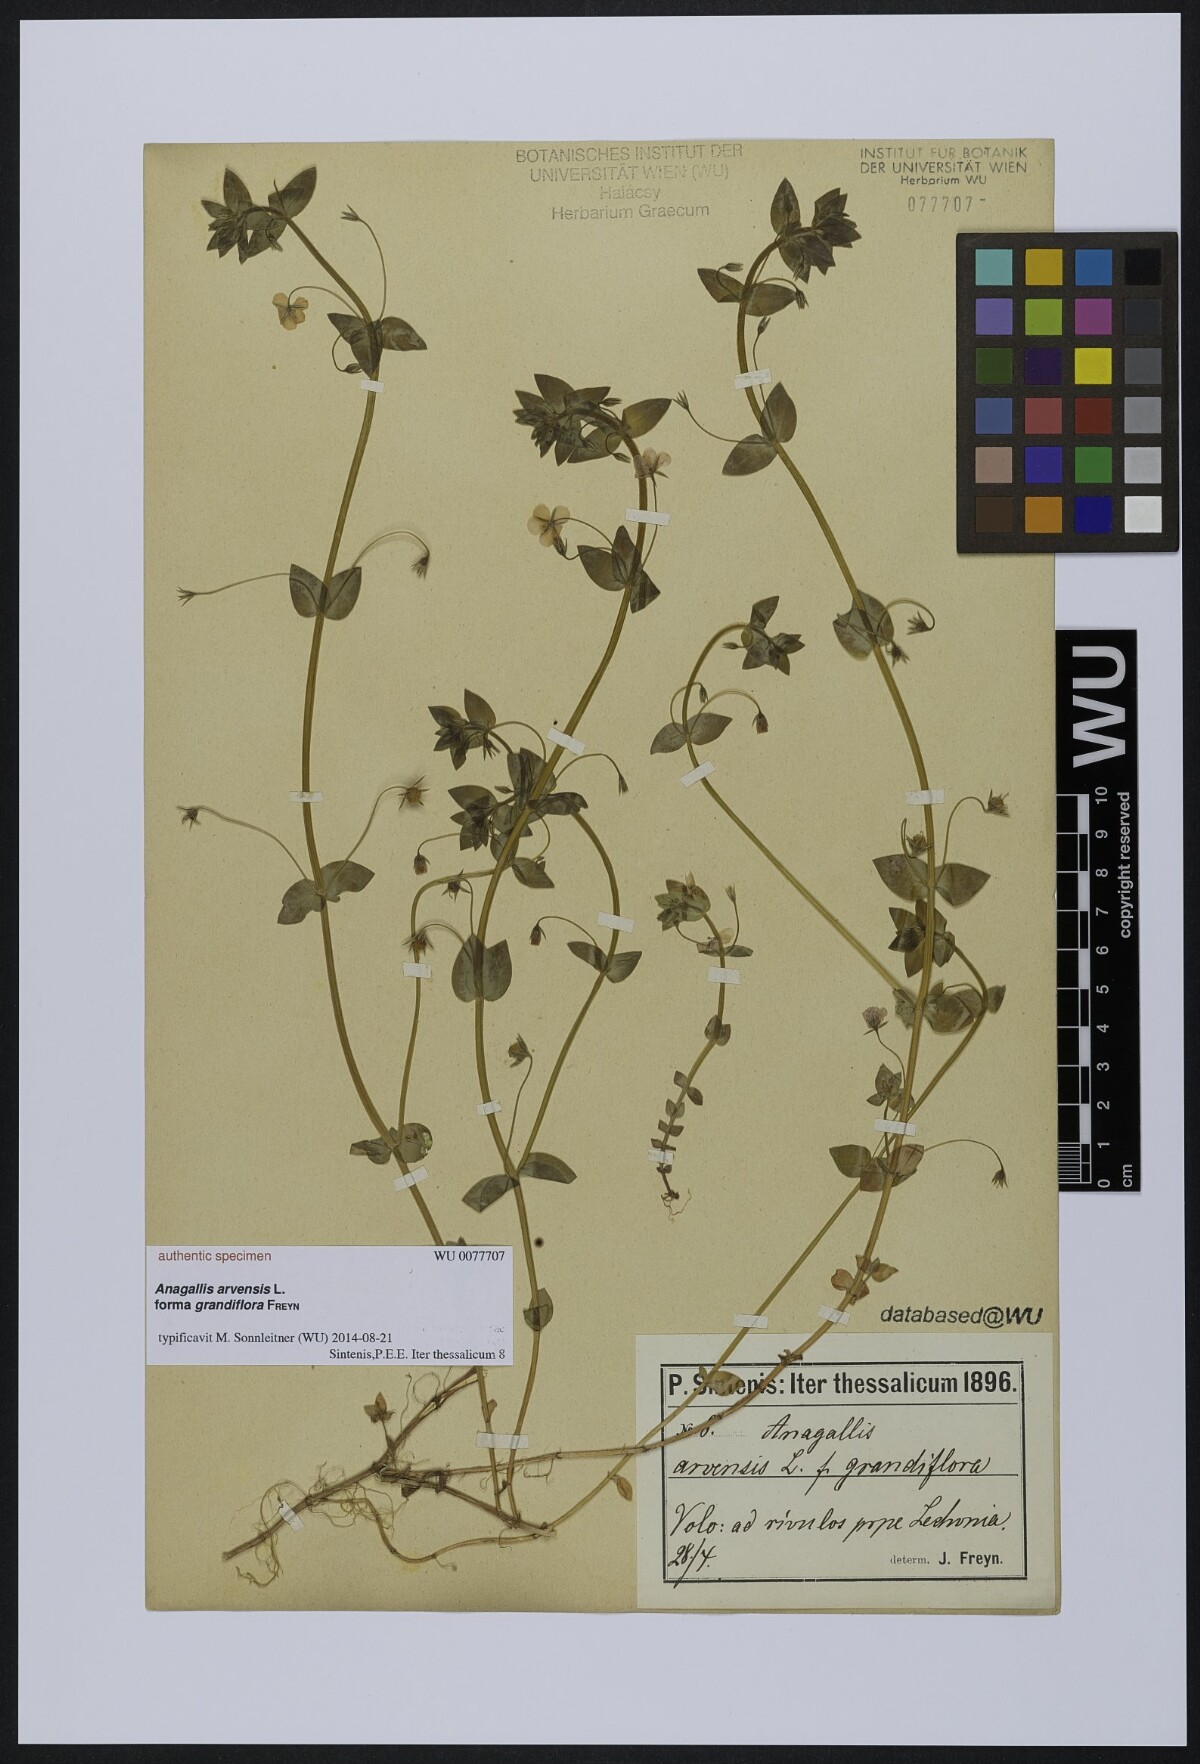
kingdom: Plantae
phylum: Tracheophyta
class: Magnoliopsida
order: Ericales
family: Primulaceae
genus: Lysimachia
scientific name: Lysimachia arvensis
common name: Scarlet pimpernel
